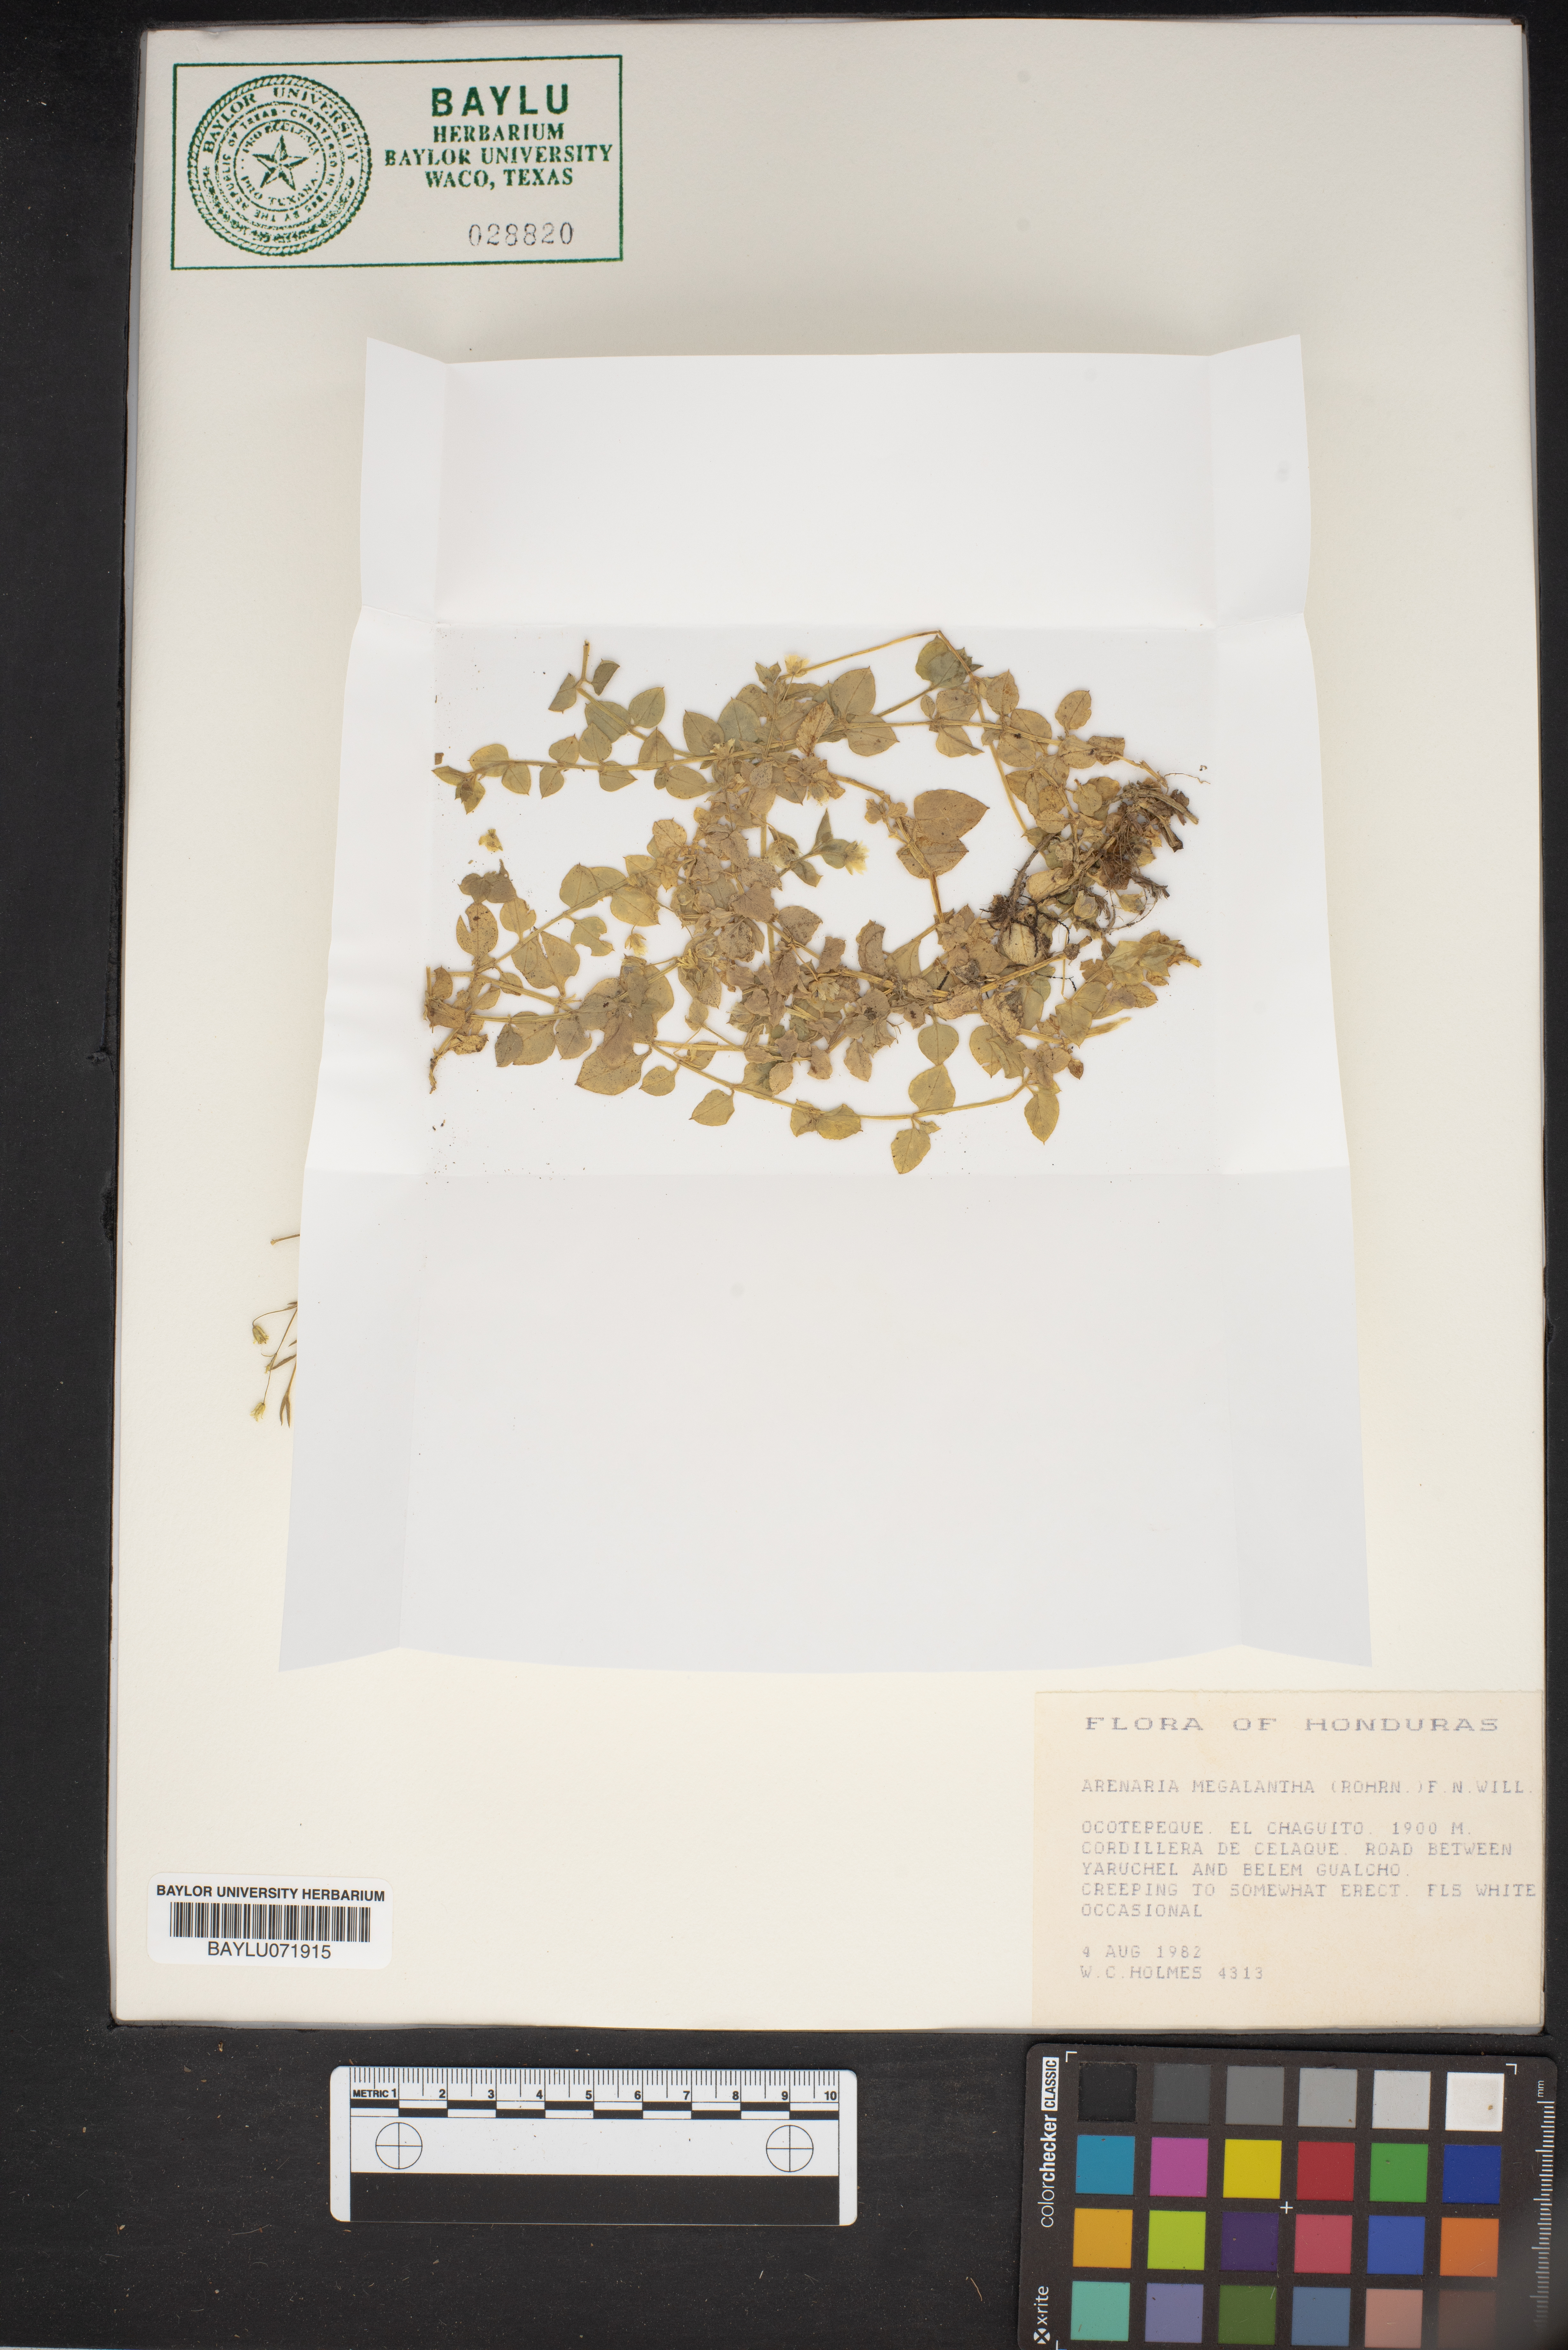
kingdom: Plantae
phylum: Tracheophyta
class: Magnoliopsida
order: Caryophyllales
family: Caryophyllaceae
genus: Arenaria
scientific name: Arenaria lanuginosa
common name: Spread sandwort
